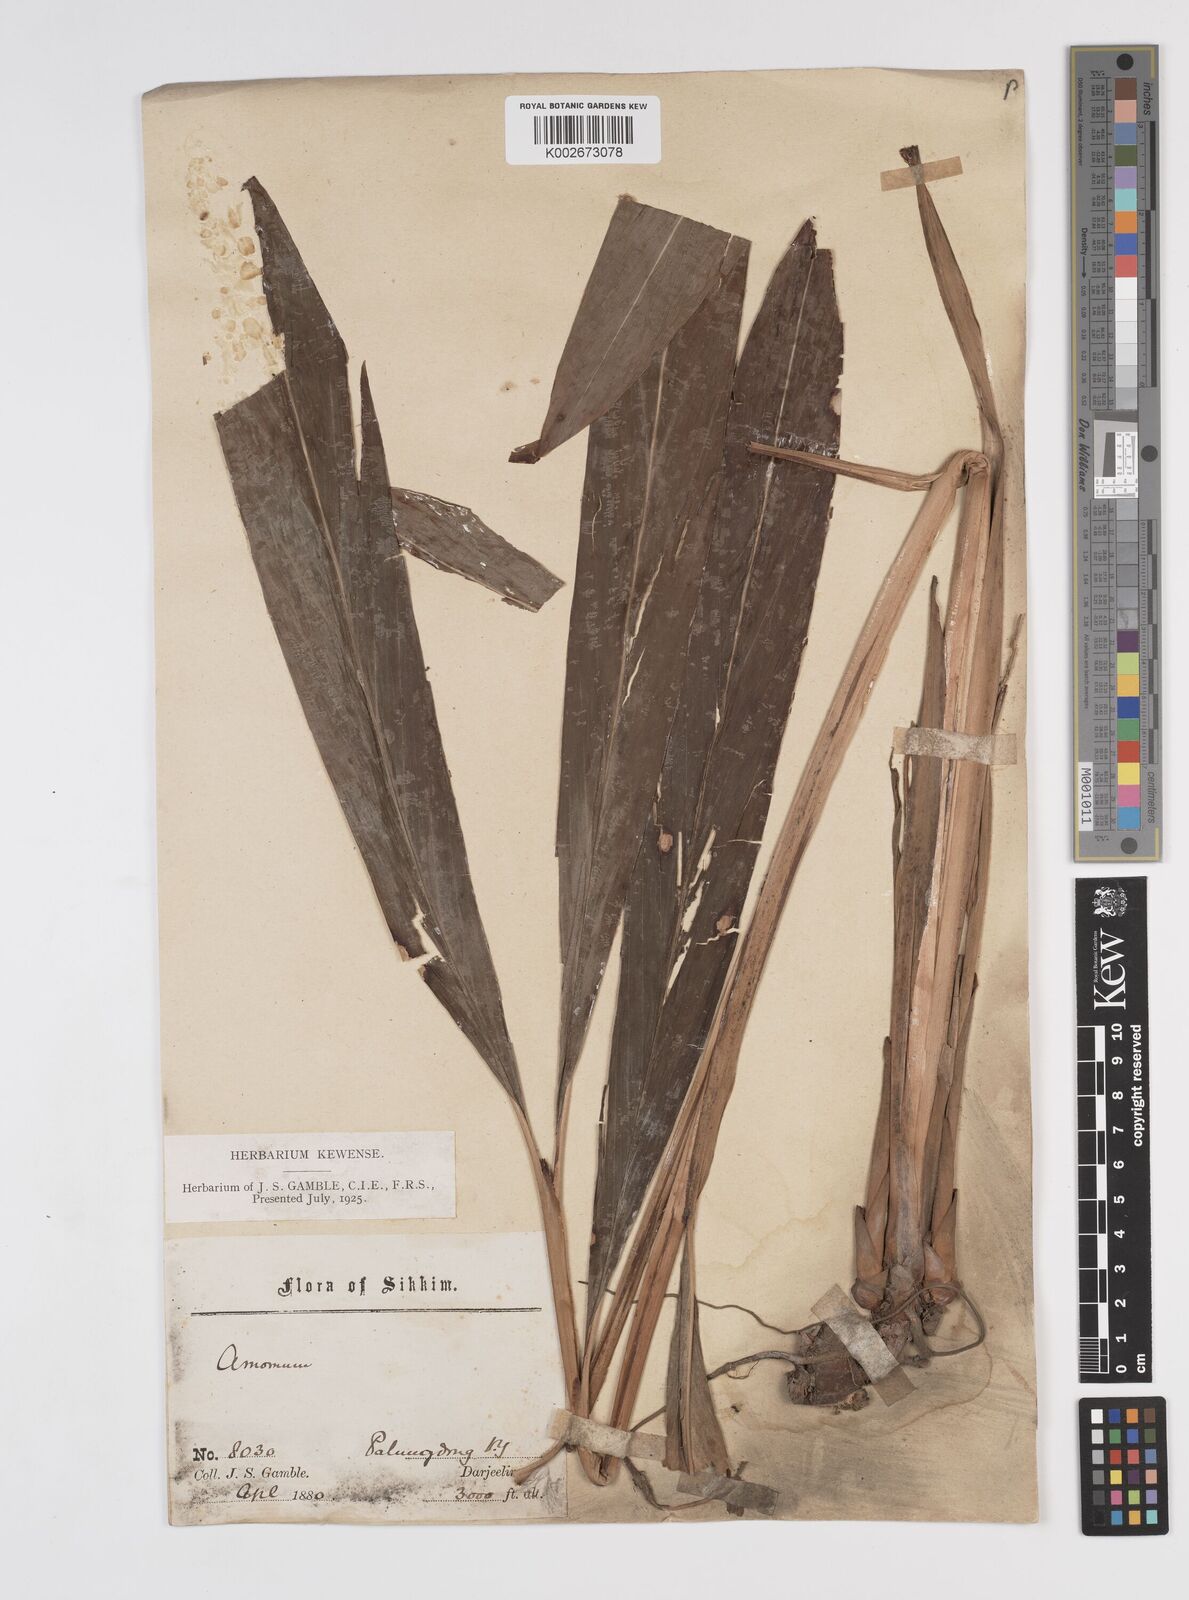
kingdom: Plantae
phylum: Tracheophyta
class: Liliopsida
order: Zingiberales
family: Zingiberaceae
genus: Amomum
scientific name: Amomum
